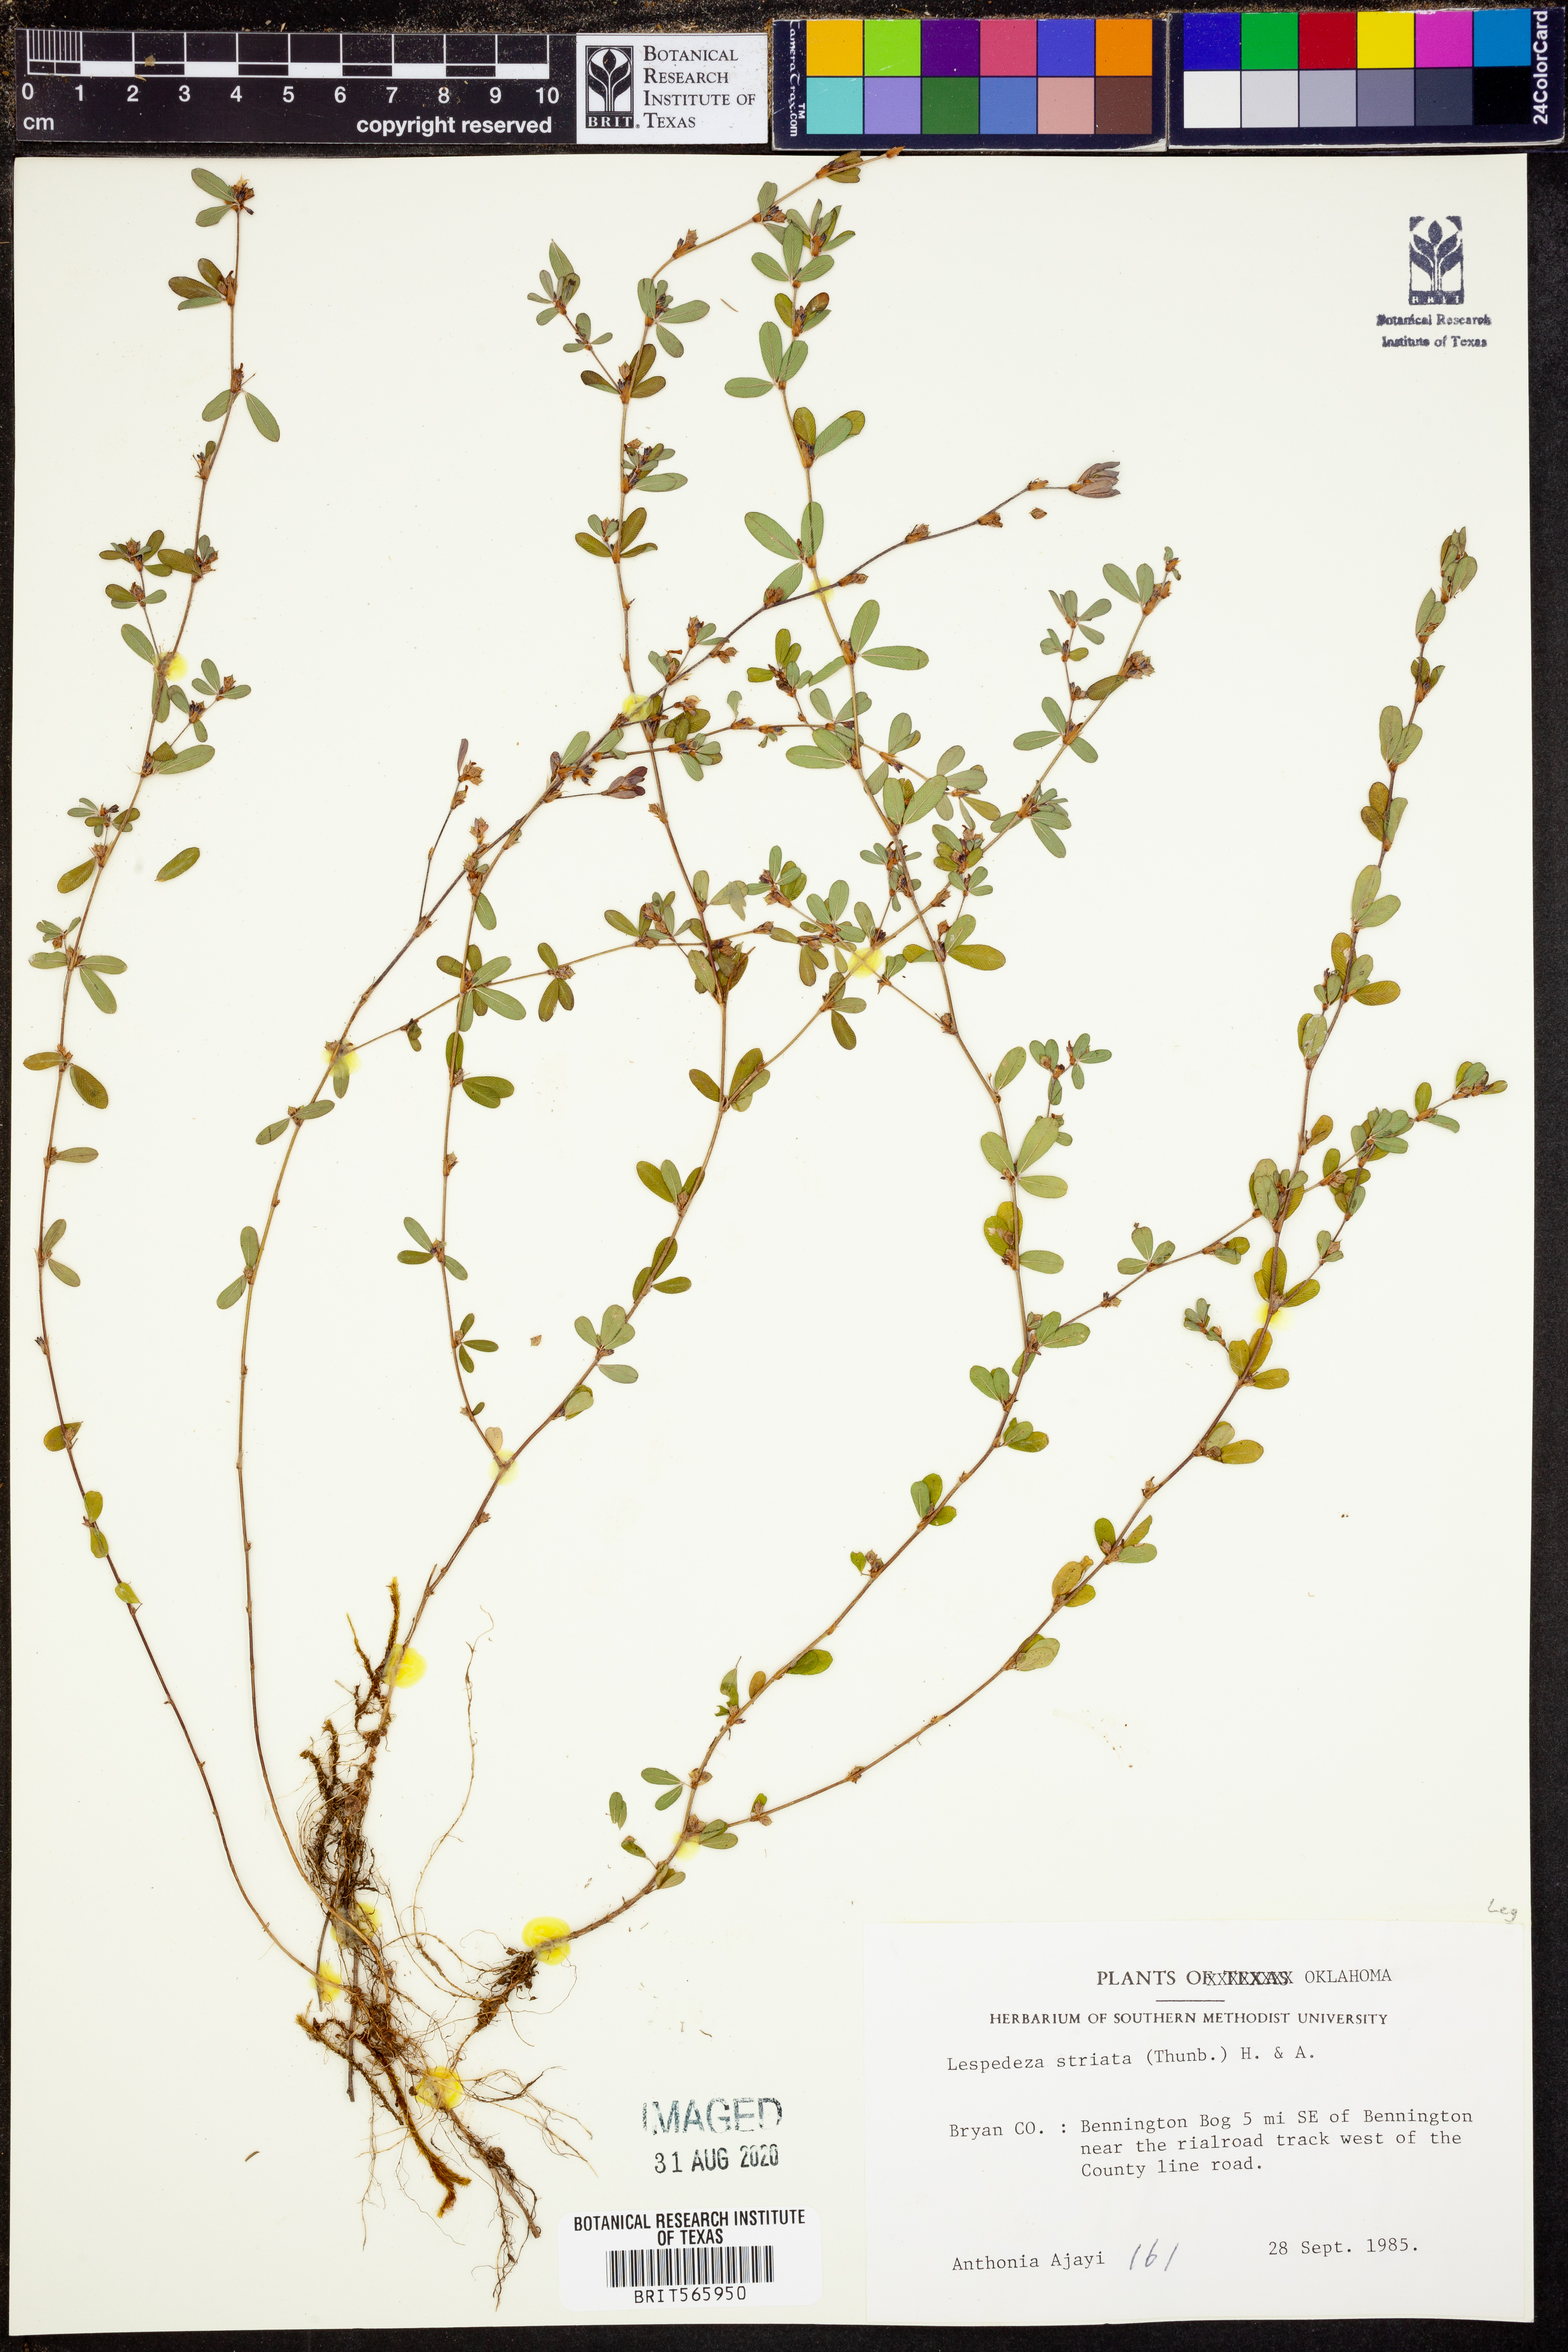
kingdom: Plantae
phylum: Tracheophyta
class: Magnoliopsida
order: Fabales
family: Fabaceae
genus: Kummerowia
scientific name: Kummerowia striata
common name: Japanese clover
